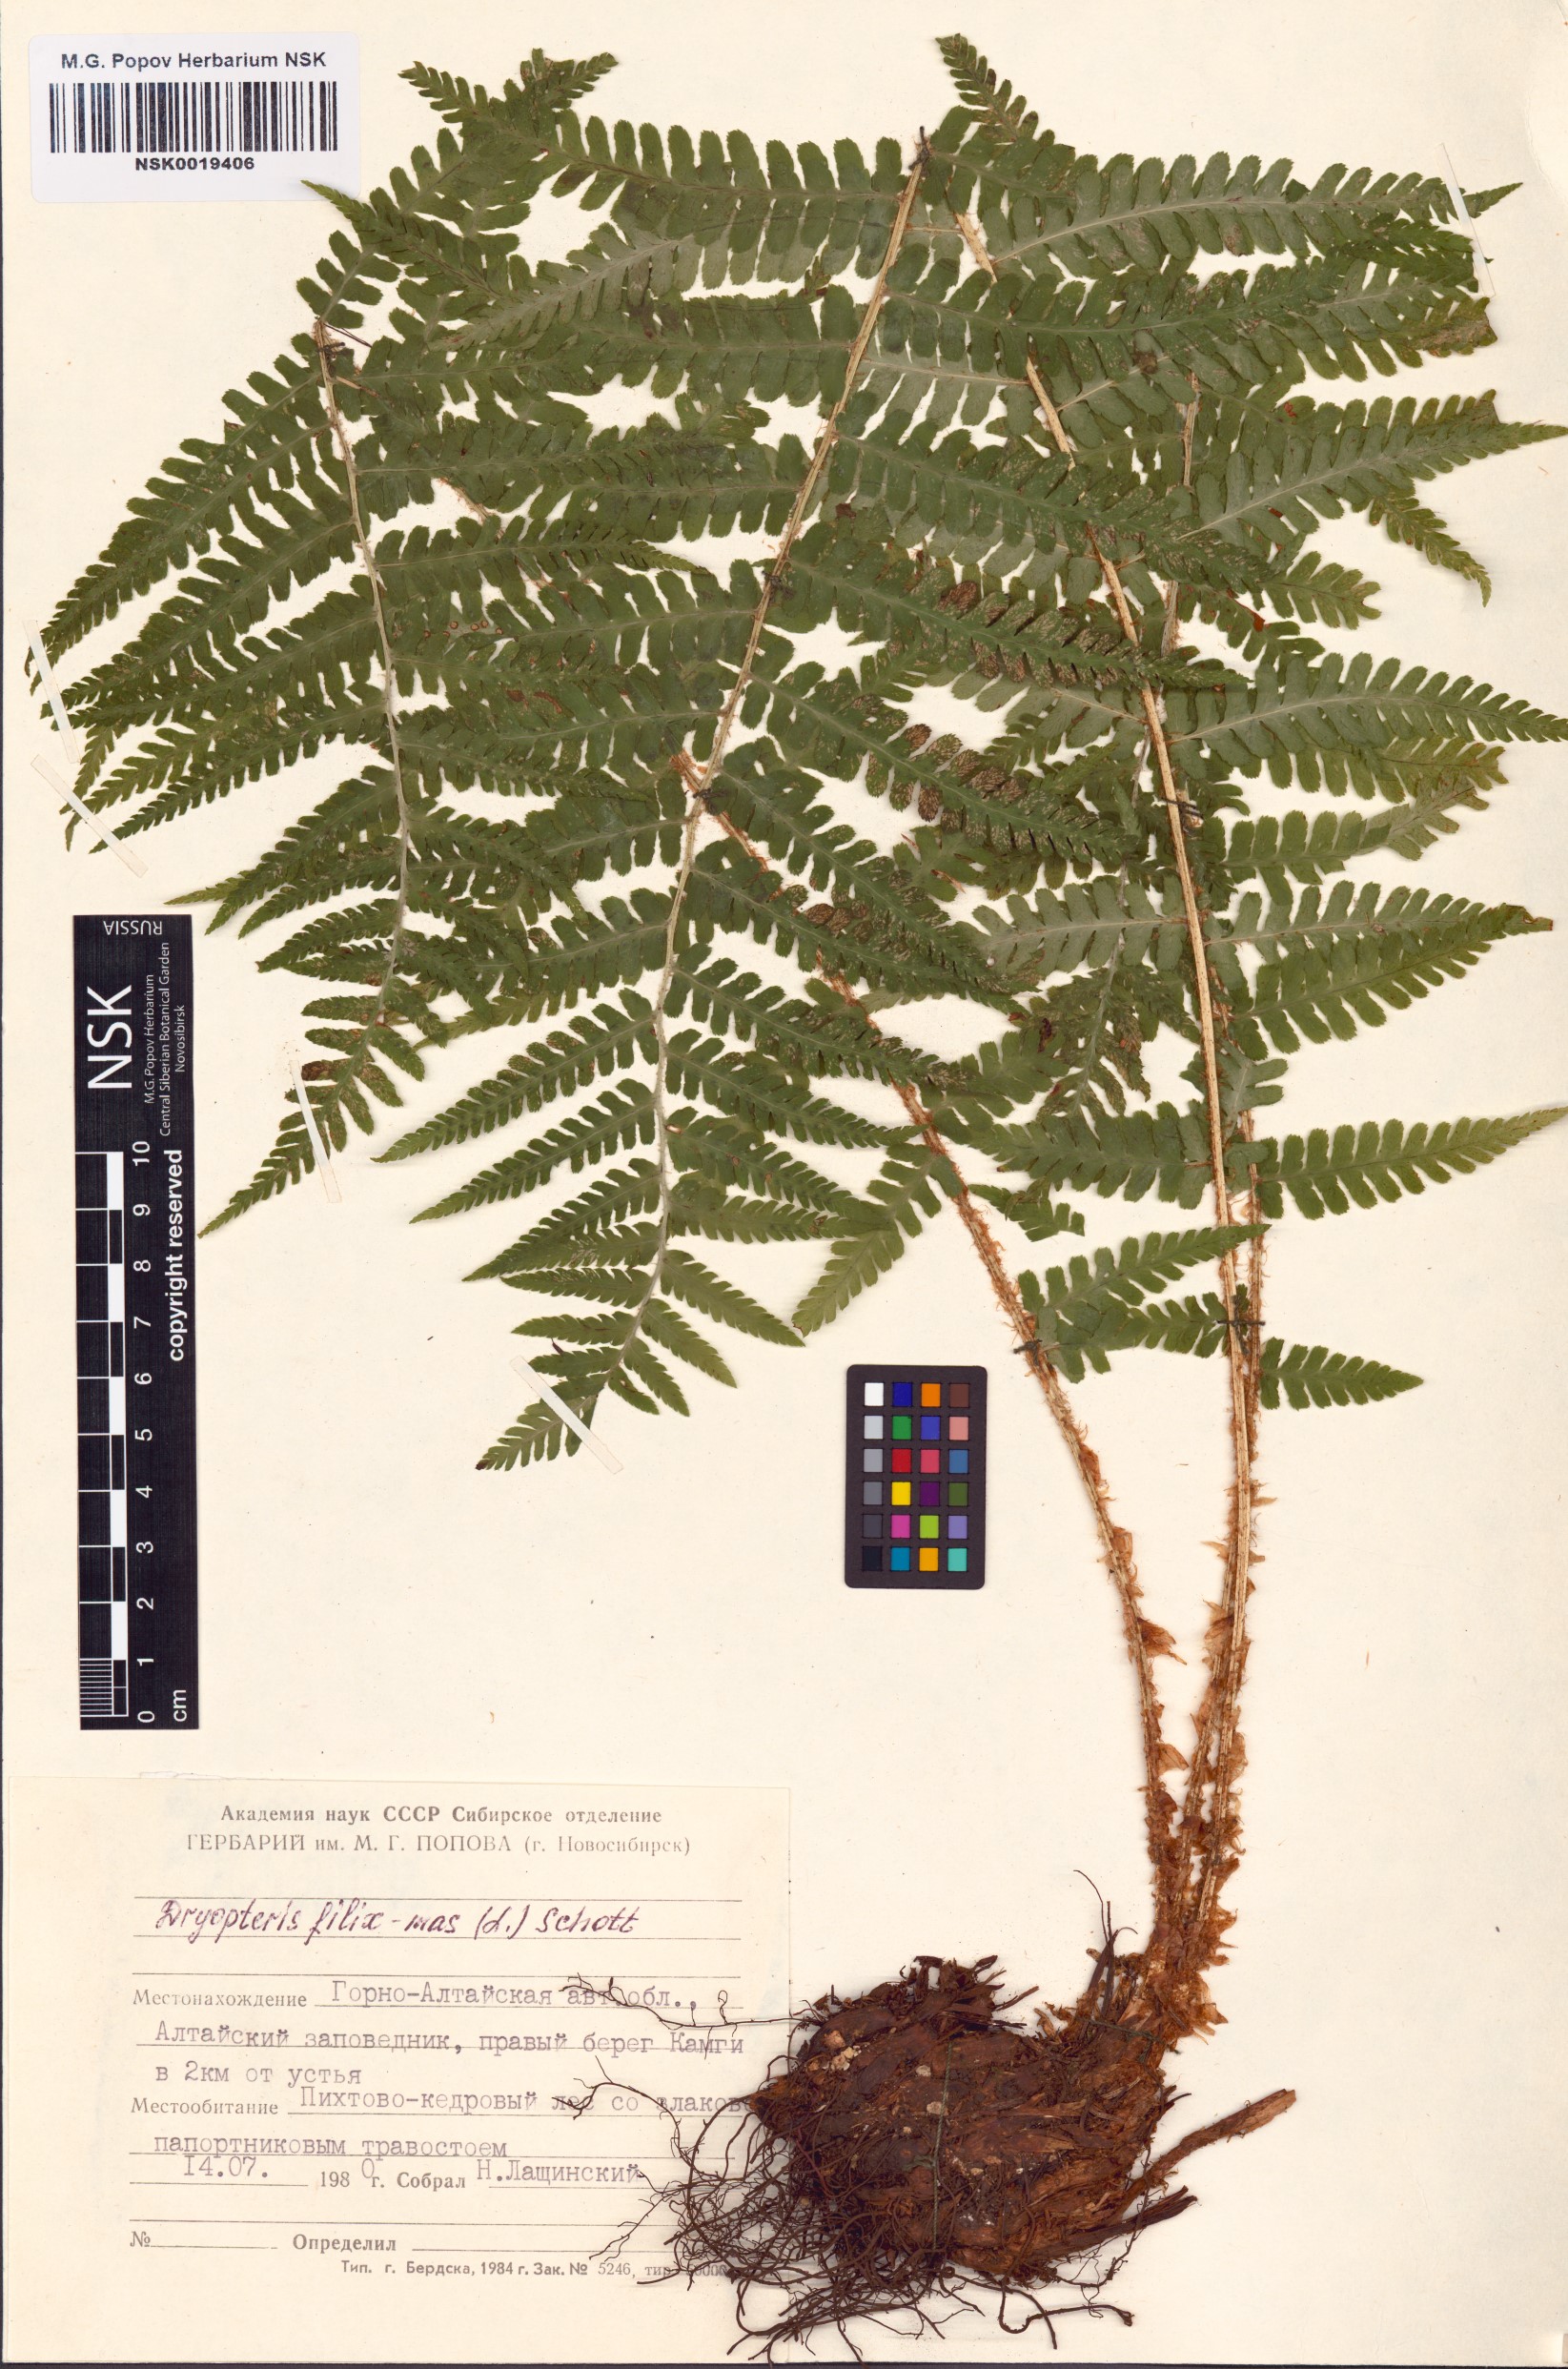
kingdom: Plantae
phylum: Tracheophyta
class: Polypodiopsida
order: Polypodiales
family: Dryopteridaceae
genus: Dryopteris
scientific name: Dryopteris filix-mas
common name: Male fern
